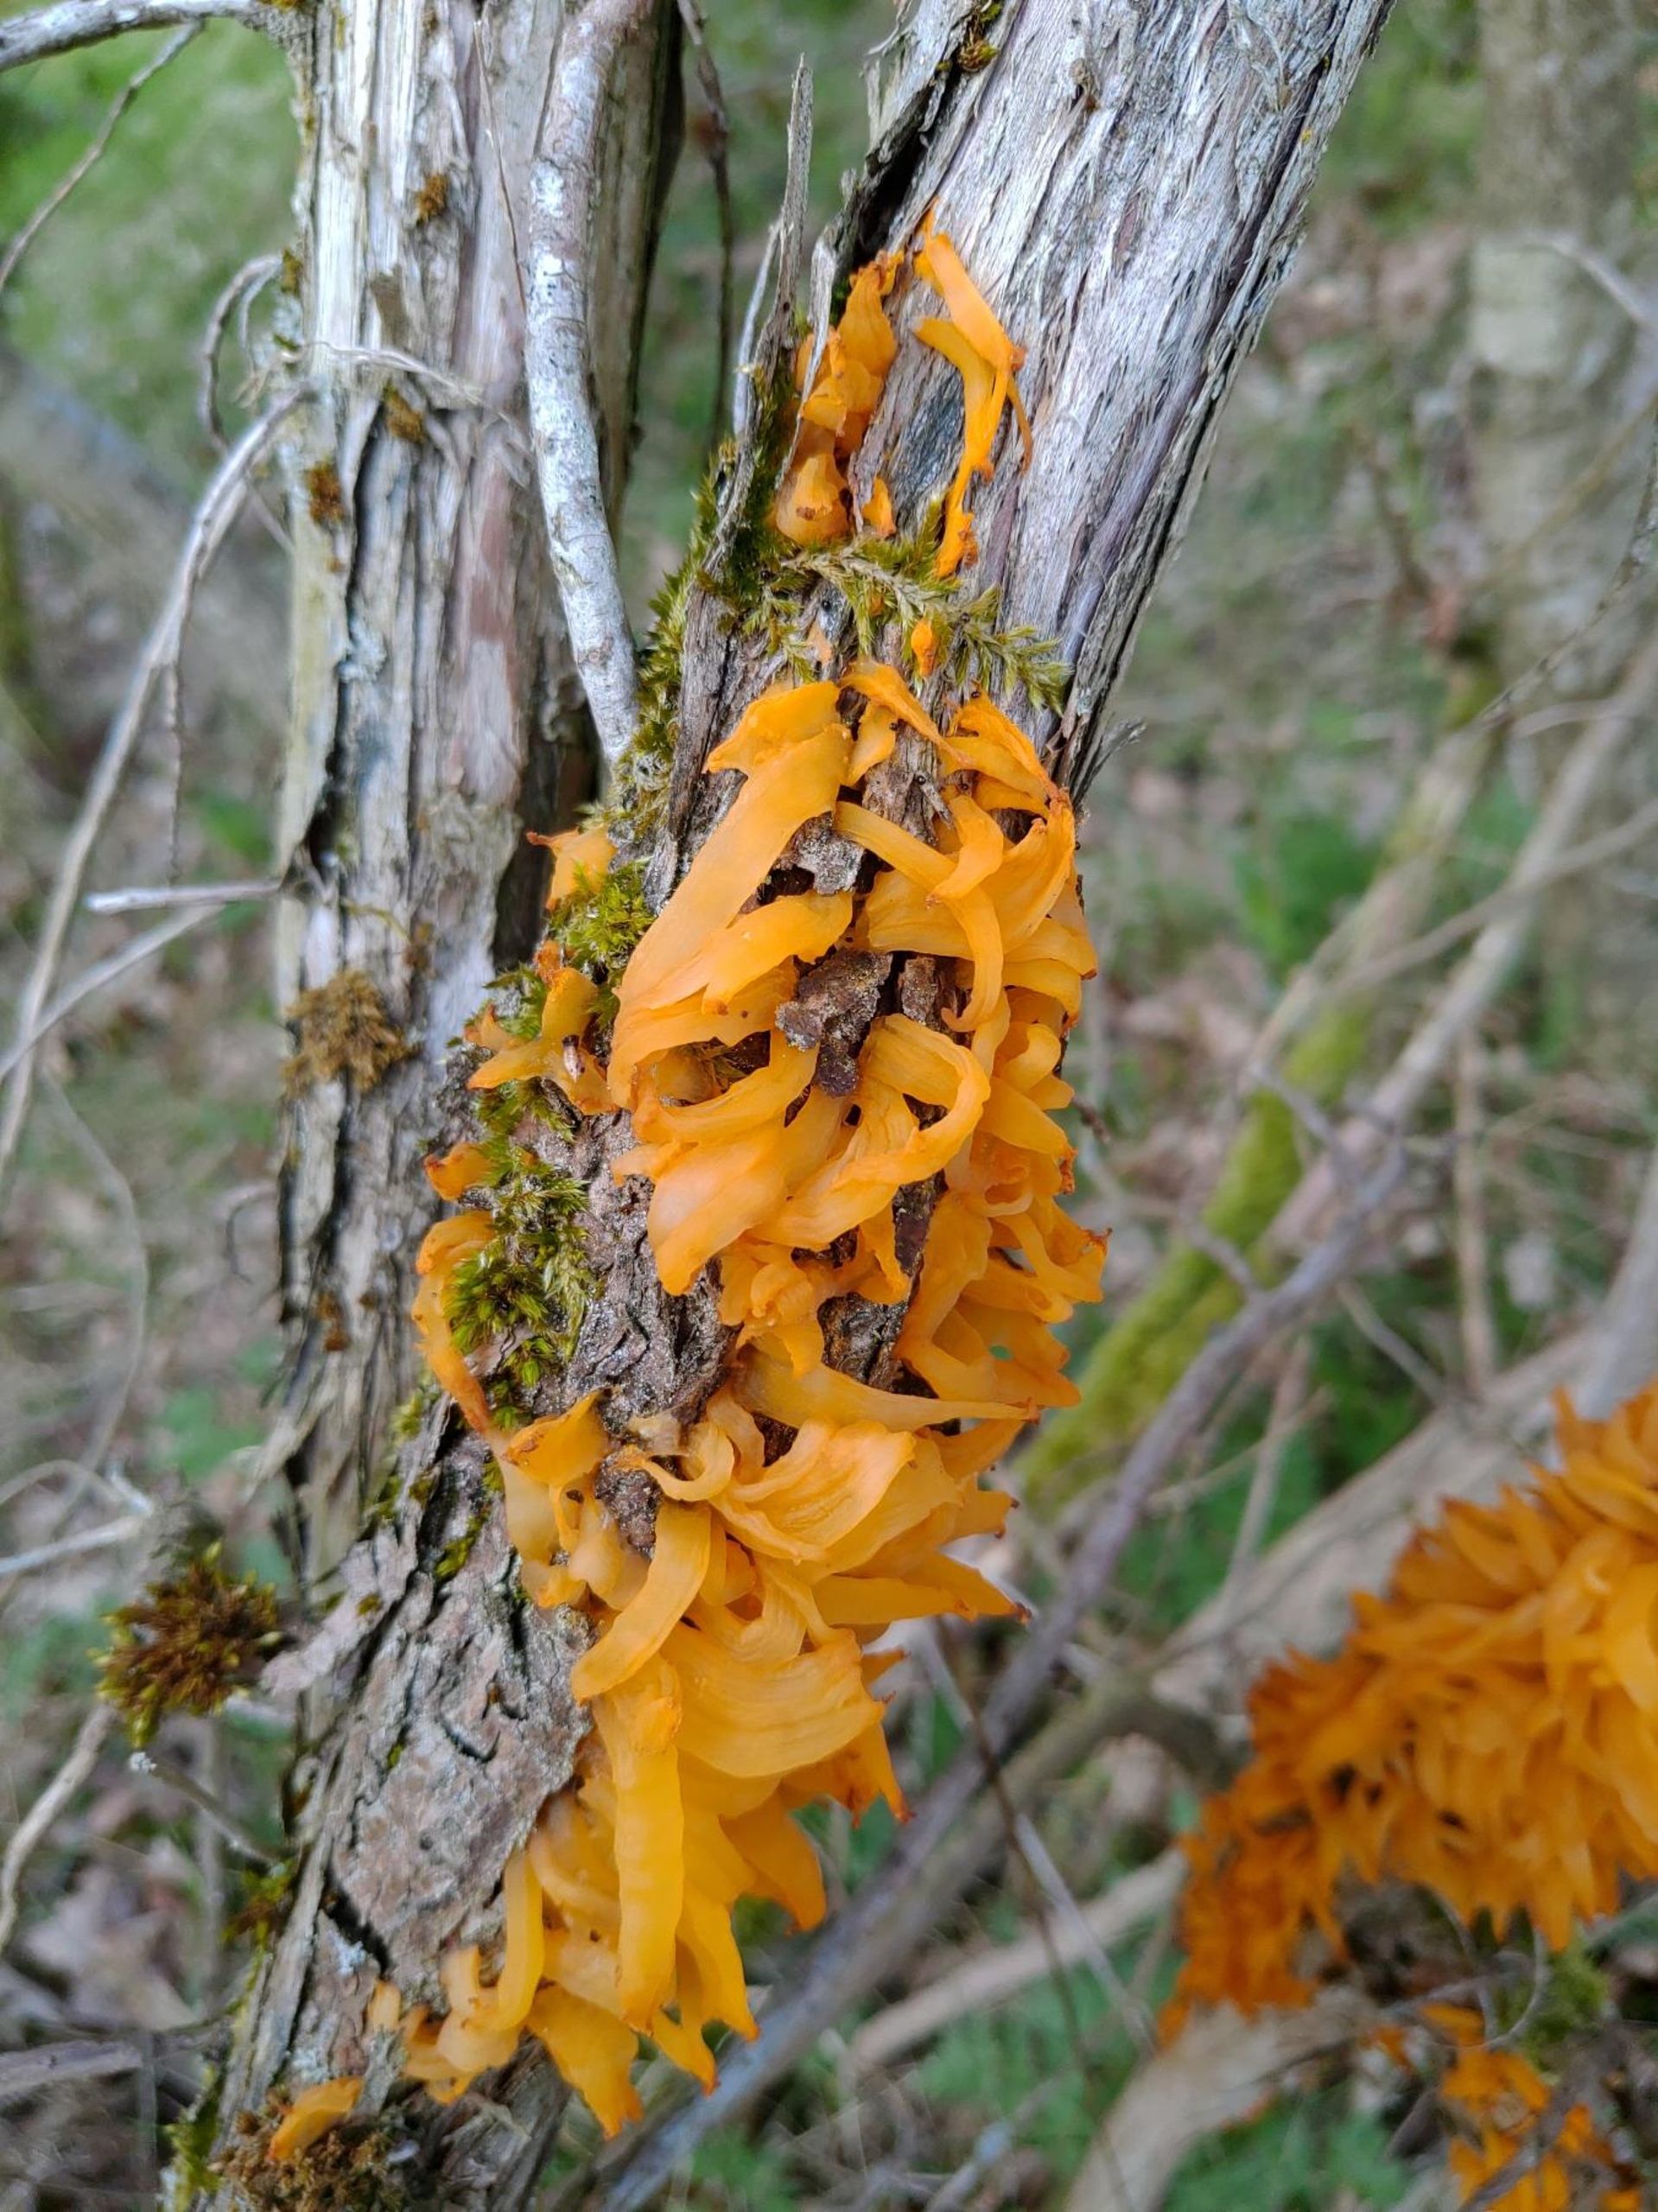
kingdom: Fungi
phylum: Basidiomycota
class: Pucciniomycetes
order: Pucciniales
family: Gymnosporangiaceae
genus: Gymnosporangium
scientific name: Gymnosporangium clavariiforme
